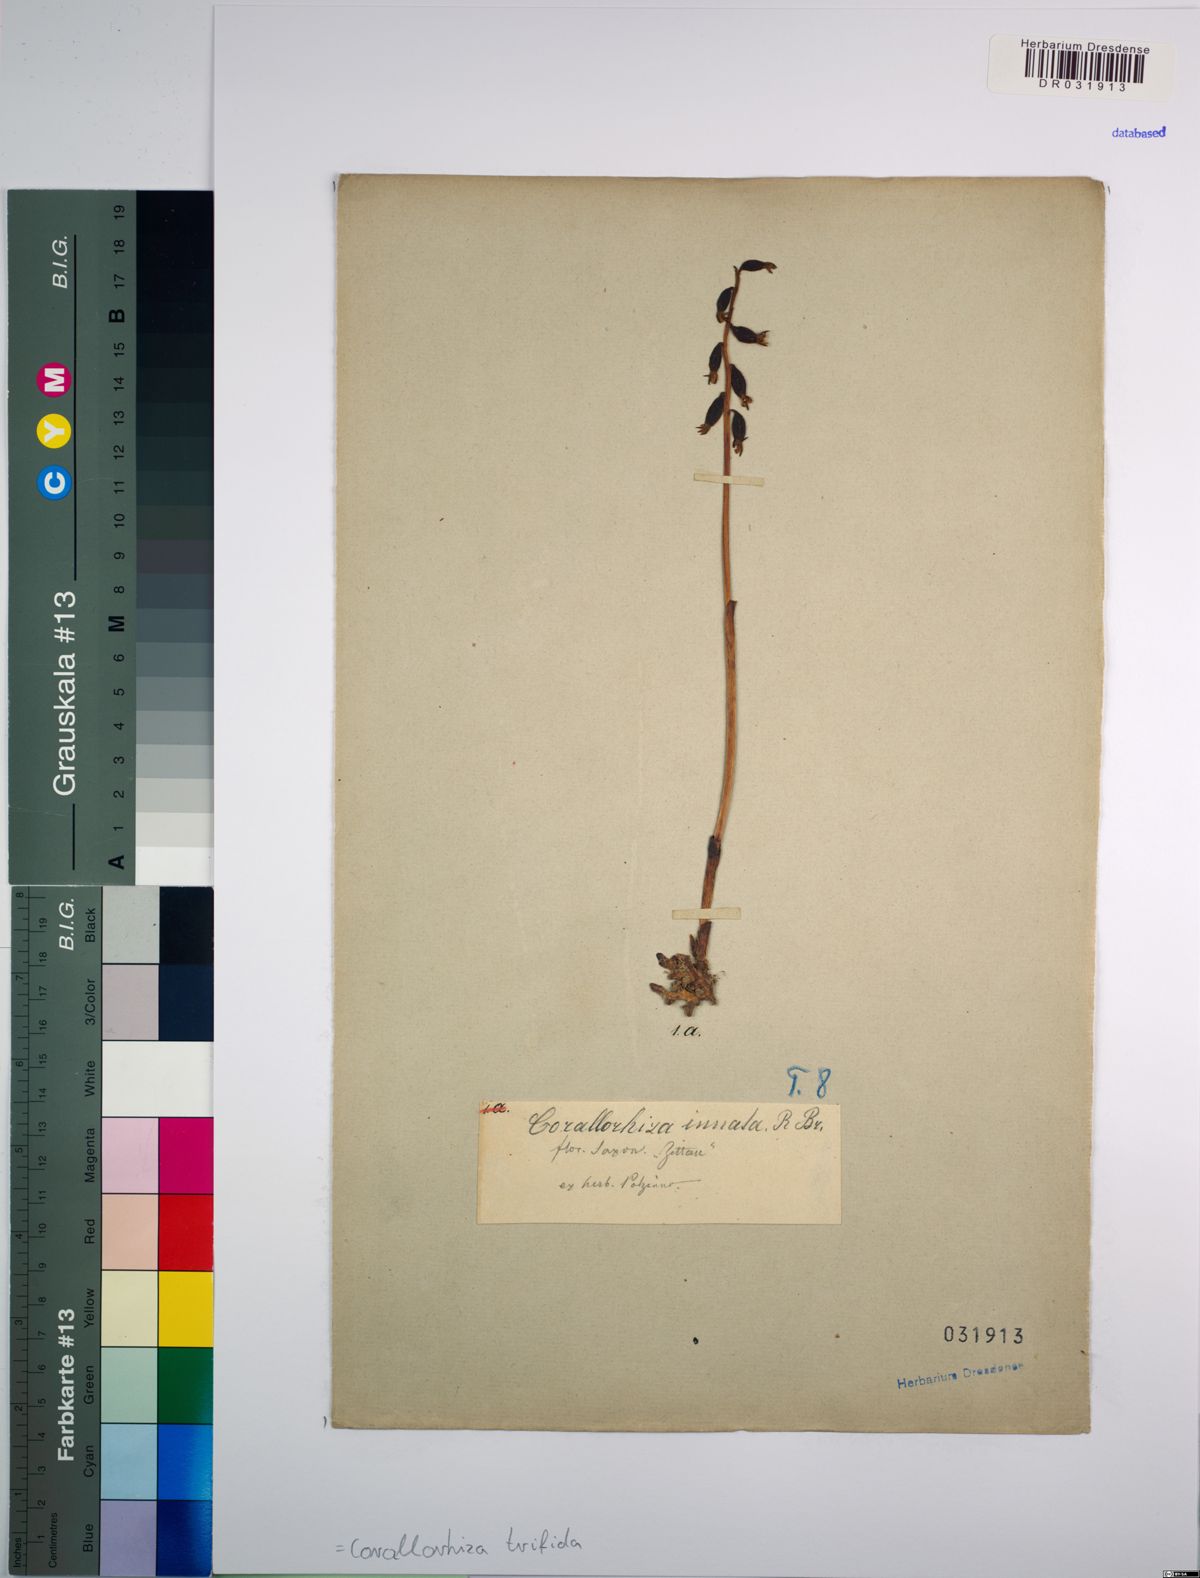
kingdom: Plantae
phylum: Tracheophyta
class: Liliopsida
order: Asparagales
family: Orchidaceae
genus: Corallorhiza
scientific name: Corallorhiza trifida
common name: Yellow coralroot
